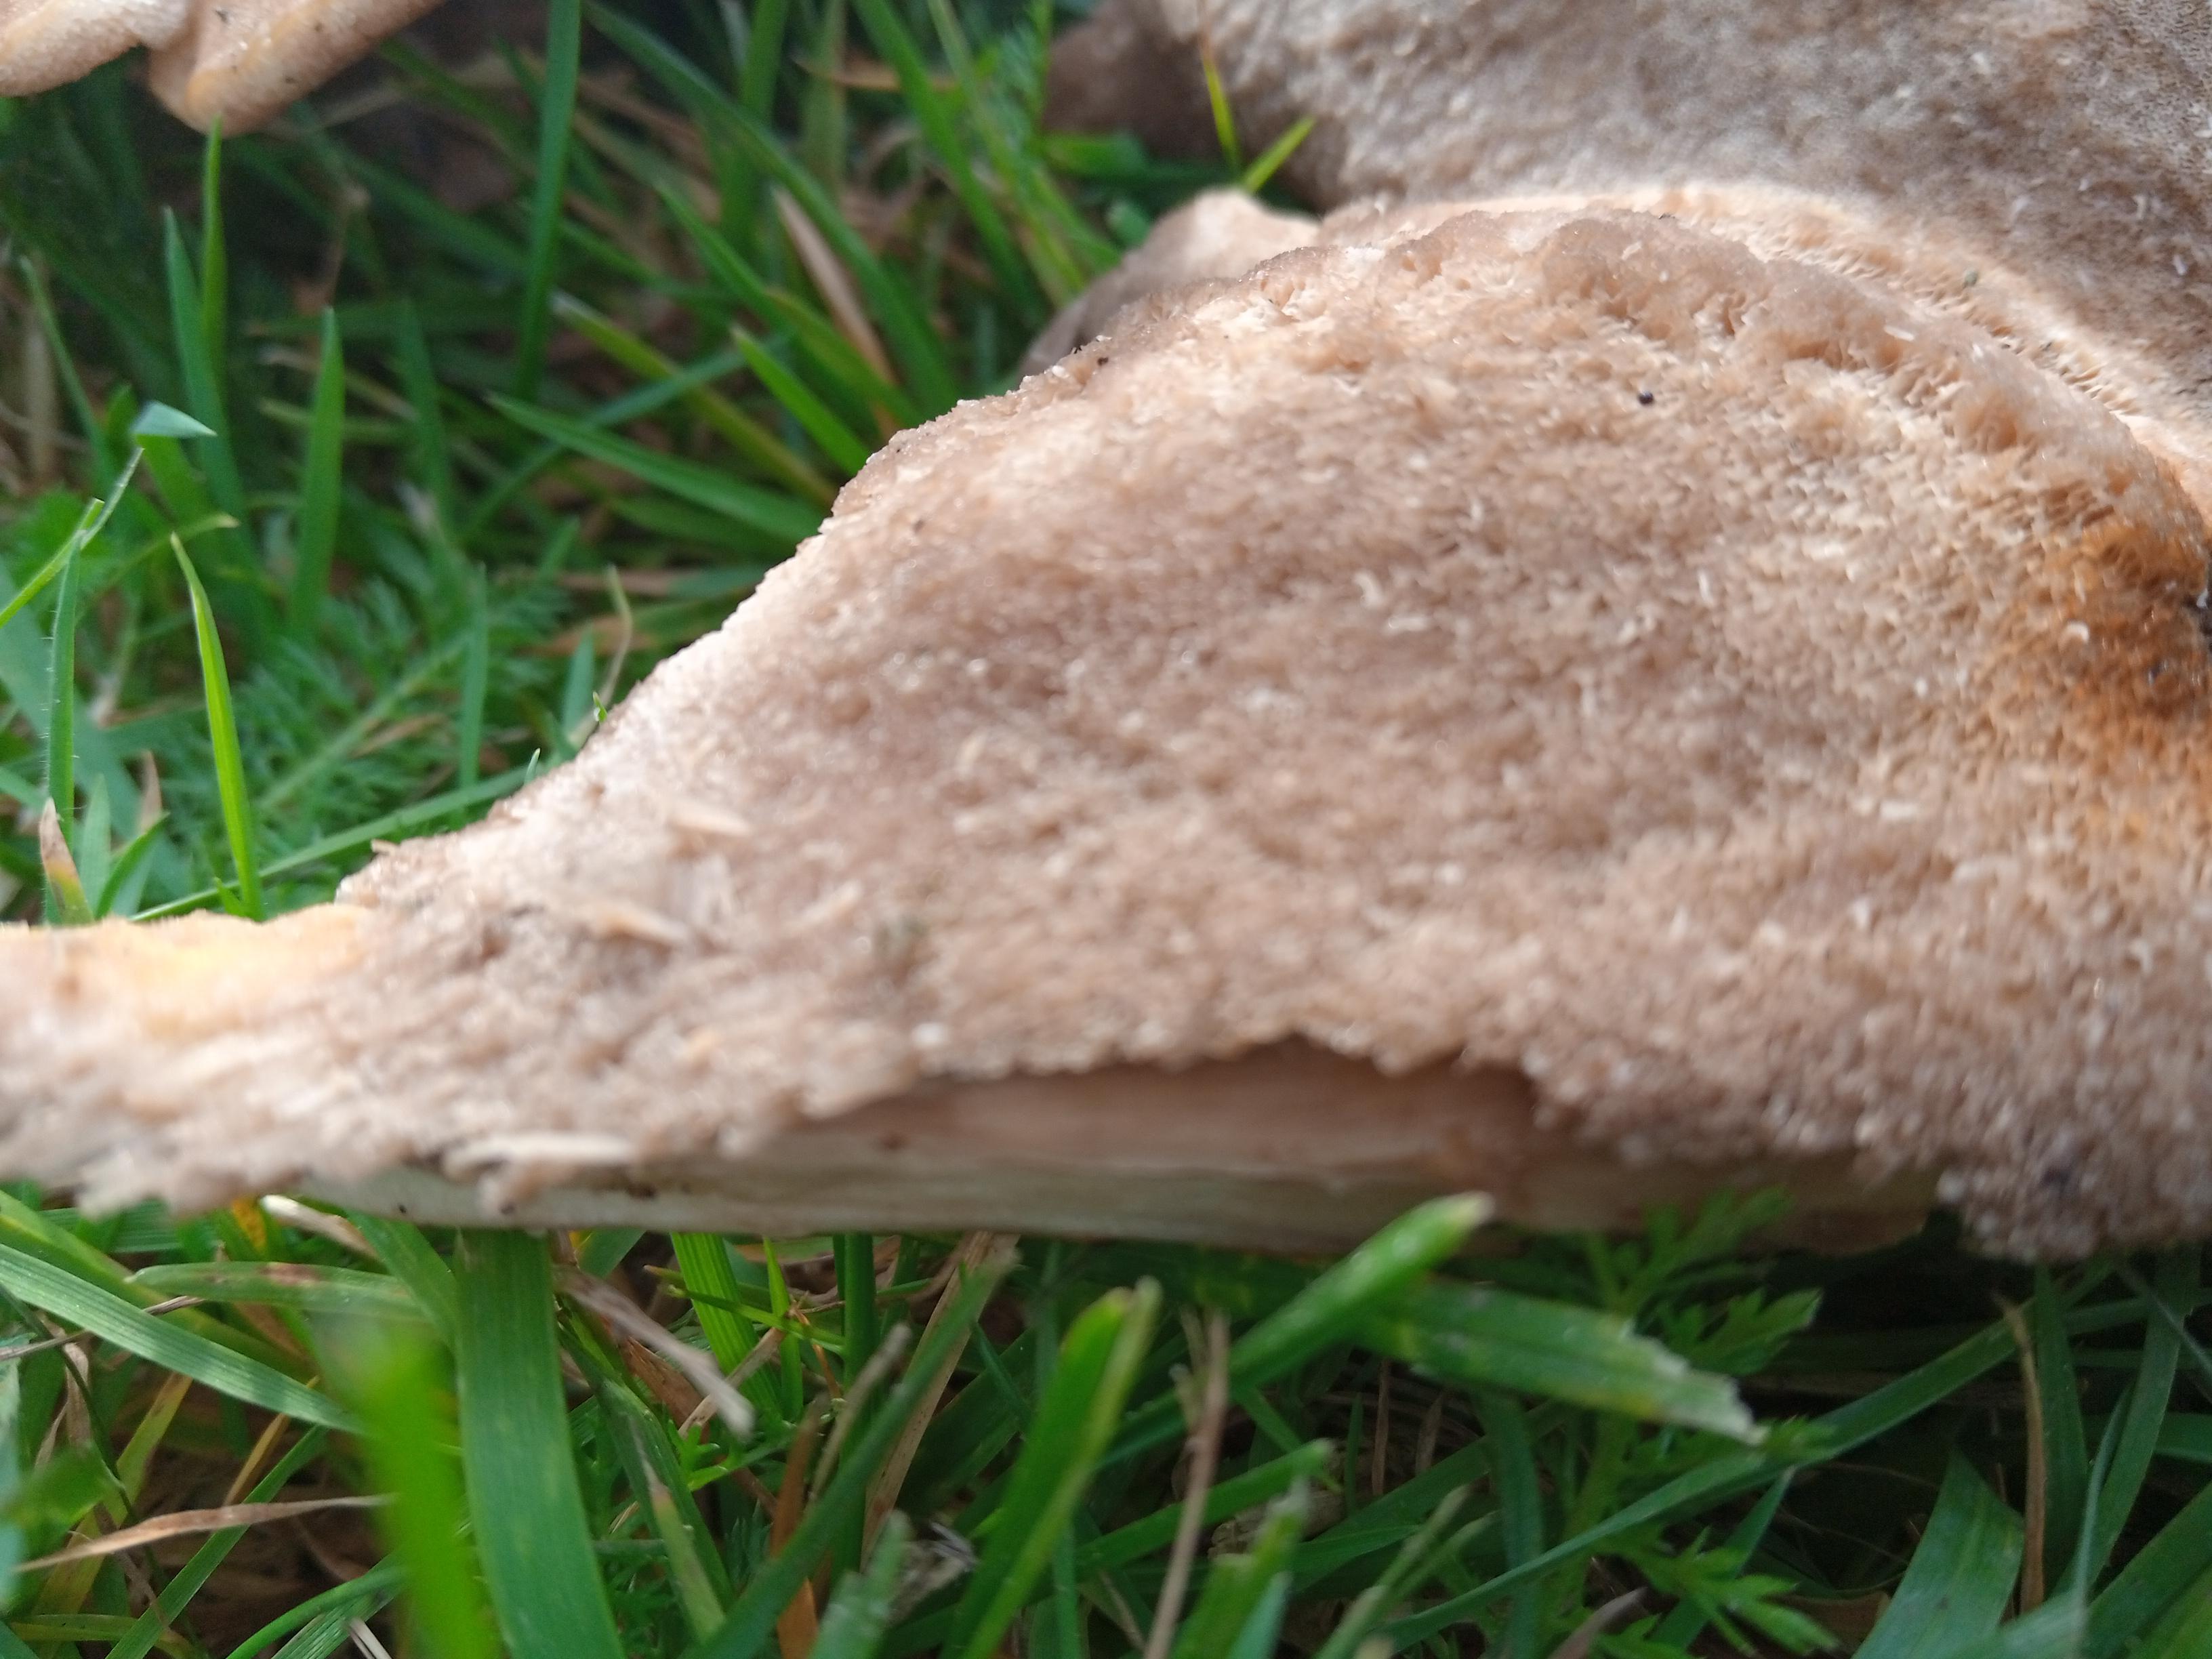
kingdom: Fungi
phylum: Basidiomycota
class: Agaricomycetes
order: Polyporales
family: Meripilaceae
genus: Meripilus
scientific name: Meripilus giganteus
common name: kæmpeporesvamp
